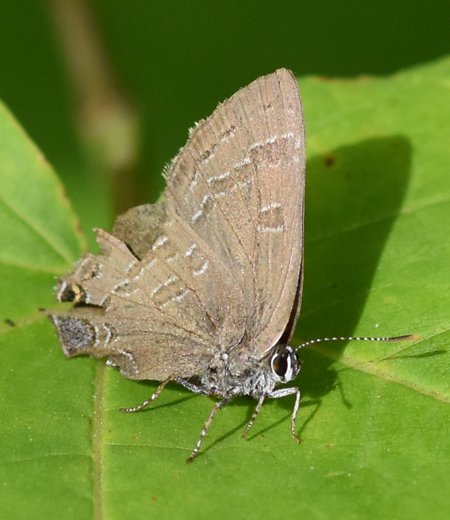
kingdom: Animalia
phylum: Arthropoda
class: Insecta
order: Lepidoptera
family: Lycaenidae
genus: Strymon
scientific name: Strymon caryaevorus
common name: Hickory Hairstreak
